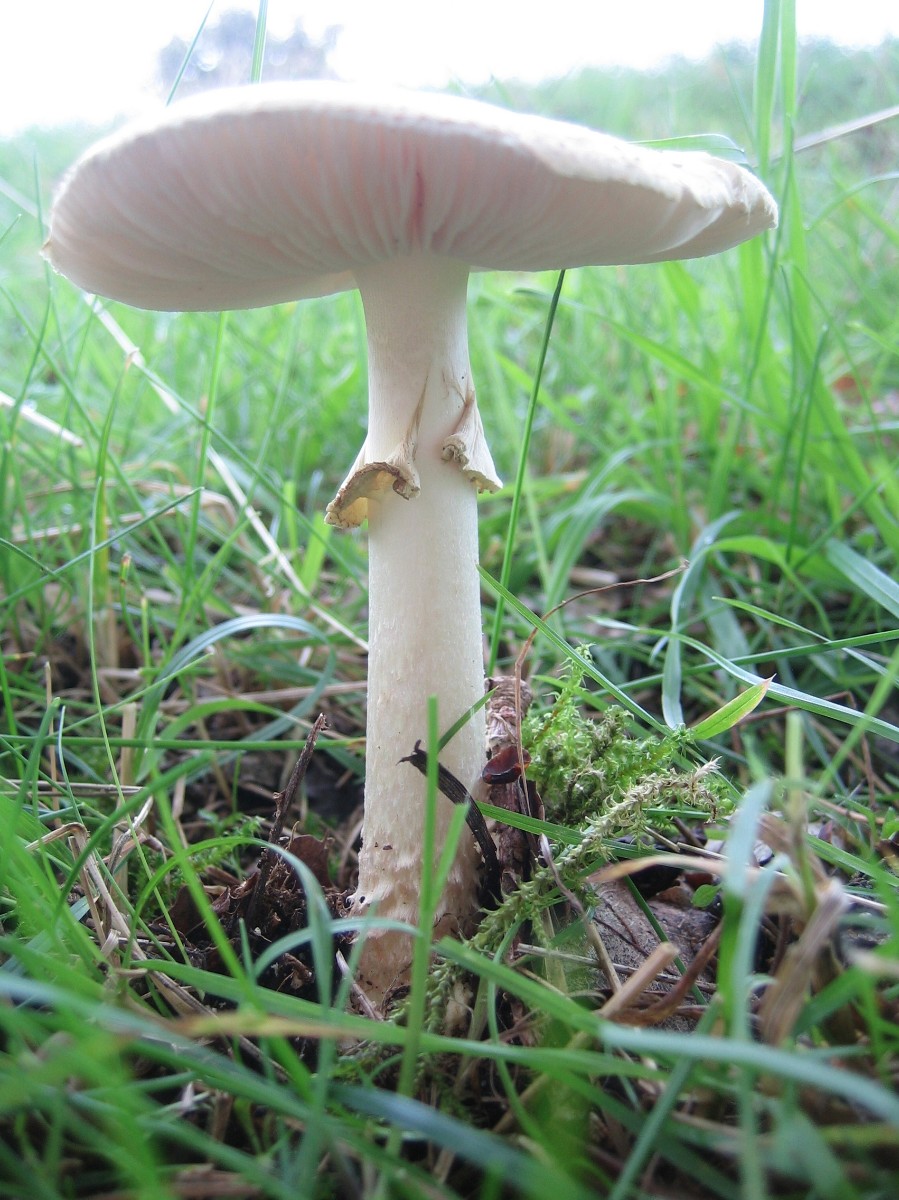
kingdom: Fungi
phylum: Basidiomycota
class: Agaricomycetes
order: Agaricales
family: Amanitaceae
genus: Amanita
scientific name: Amanita citrina
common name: False death-cap
